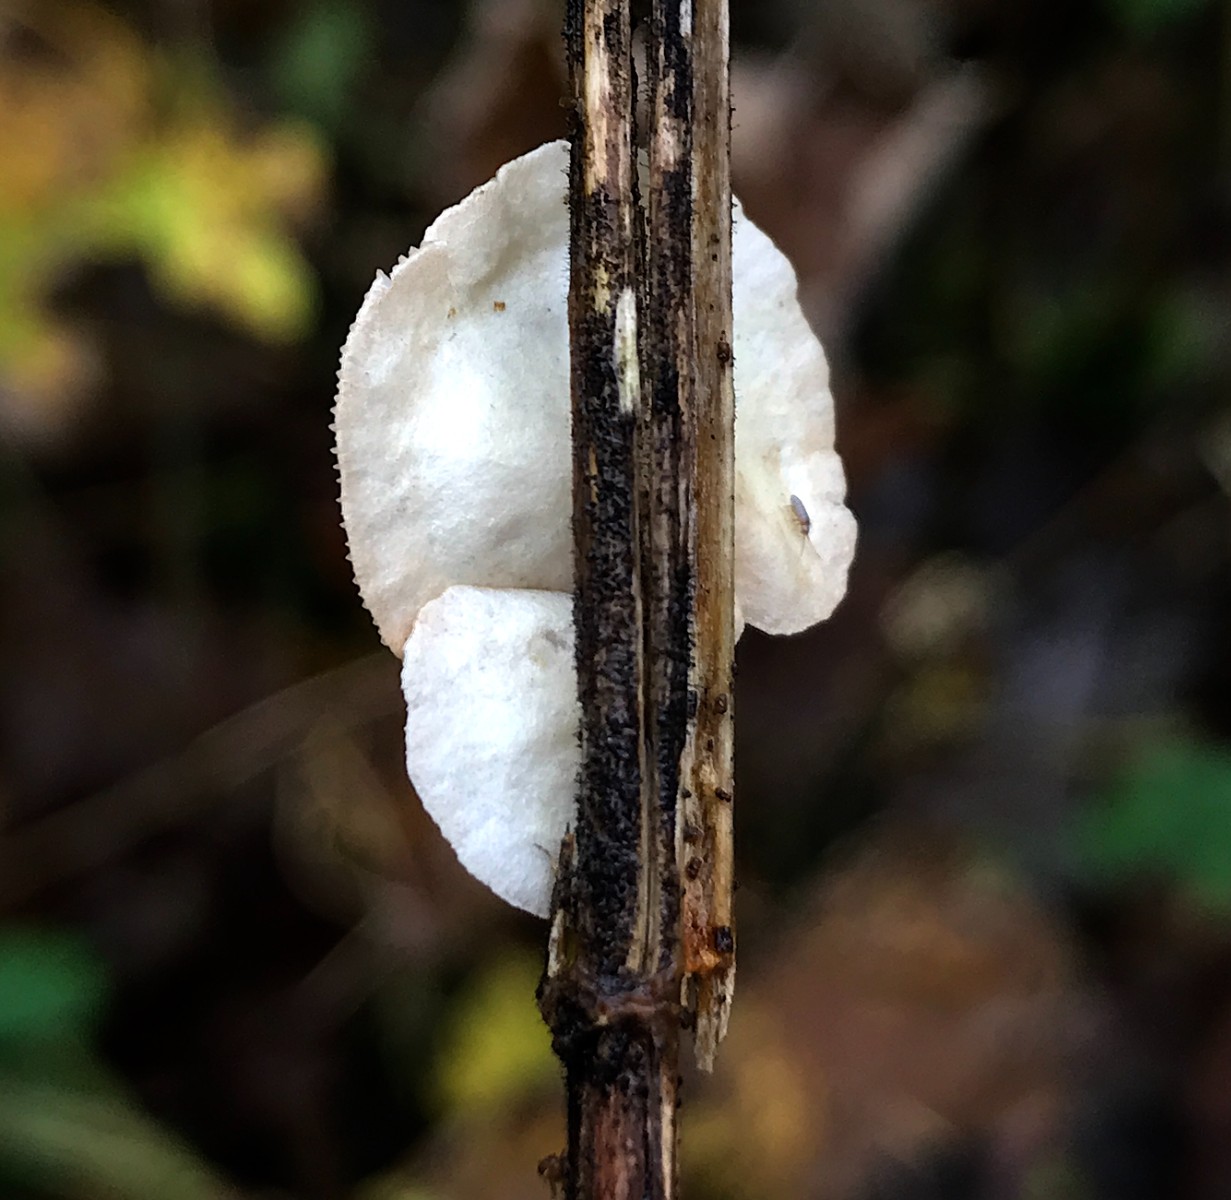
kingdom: Fungi
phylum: Basidiomycota
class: Agaricomycetes
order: Agaricales
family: Crepidotaceae
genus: Crepidotus
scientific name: Crepidotus
